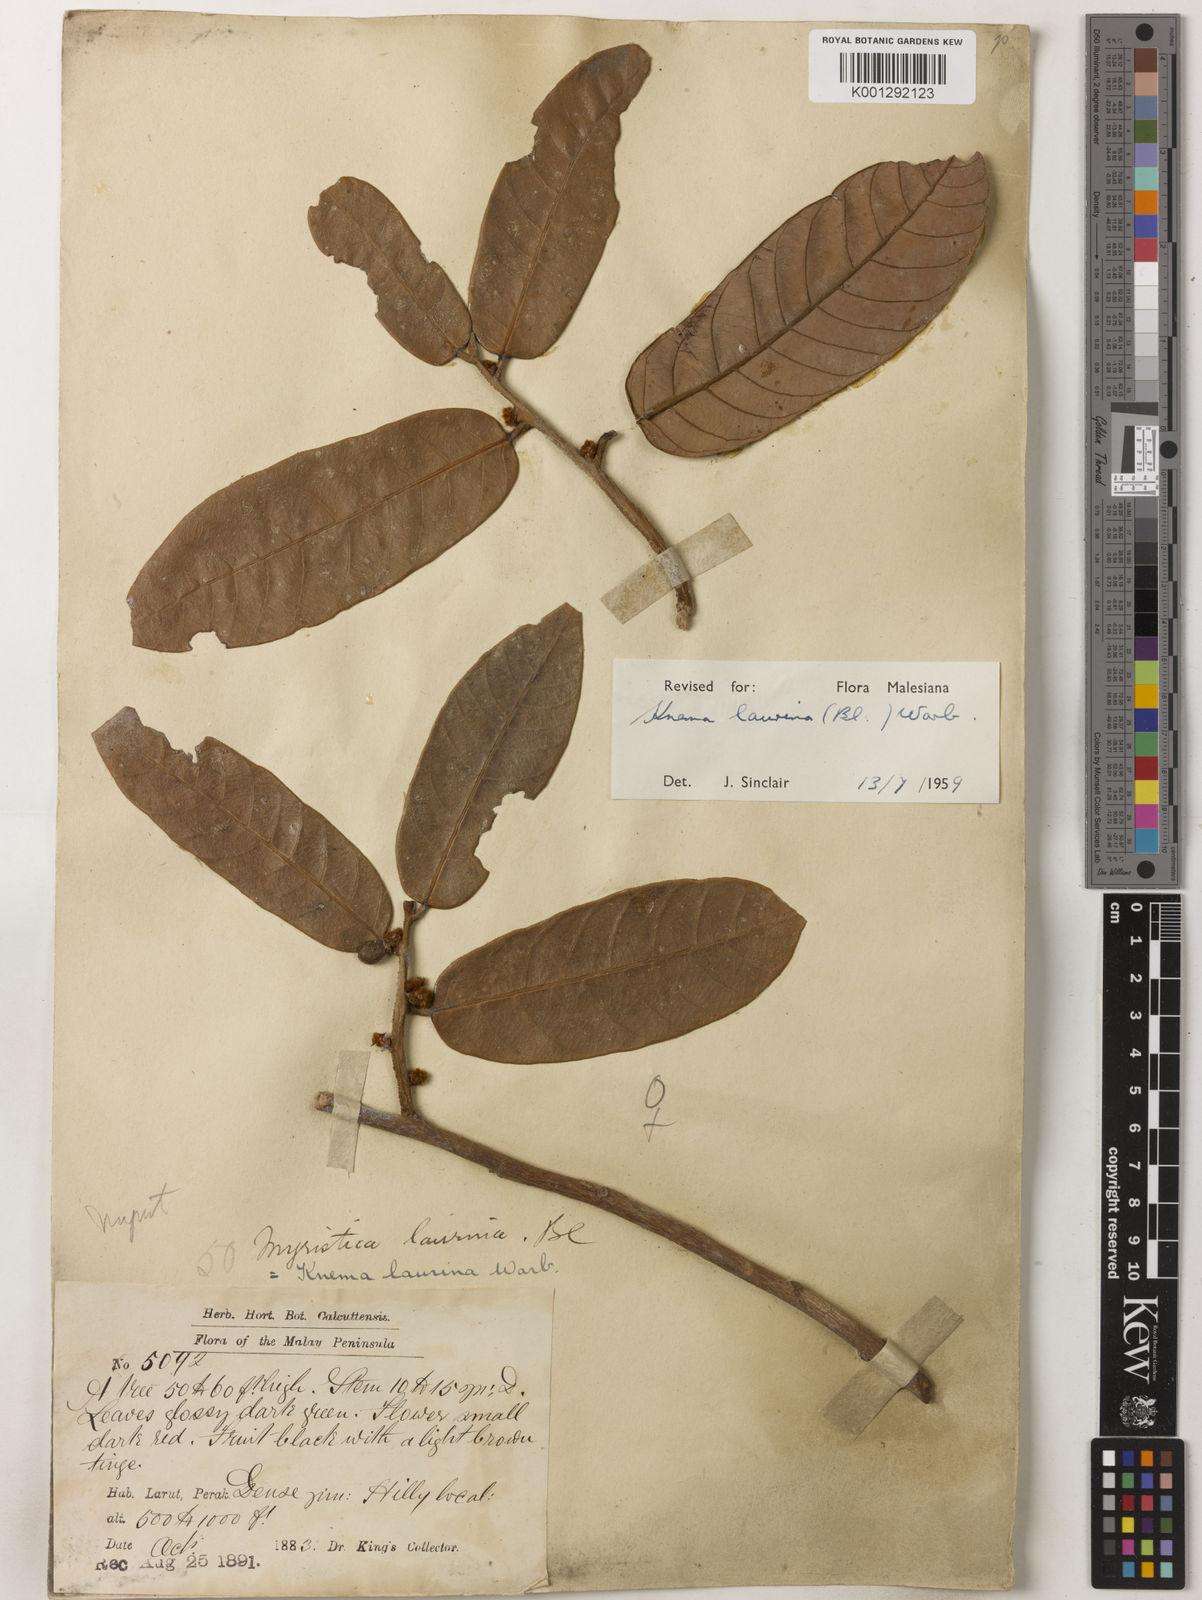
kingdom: Plantae
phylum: Tracheophyta
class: Magnoliopsida
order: Magnoliales
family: Myristicaceae
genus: Knema
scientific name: Knema laurina
